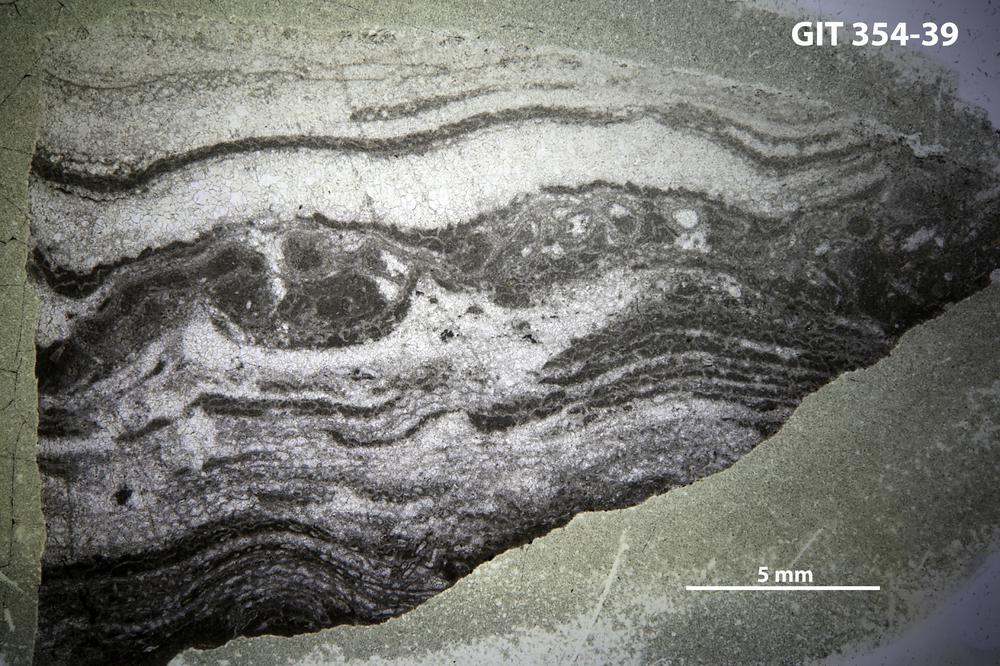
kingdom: Animalia
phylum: Porifera
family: Clathrodictyidae
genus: Clathrodictyon
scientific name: Clathrodictyon microundulatum
